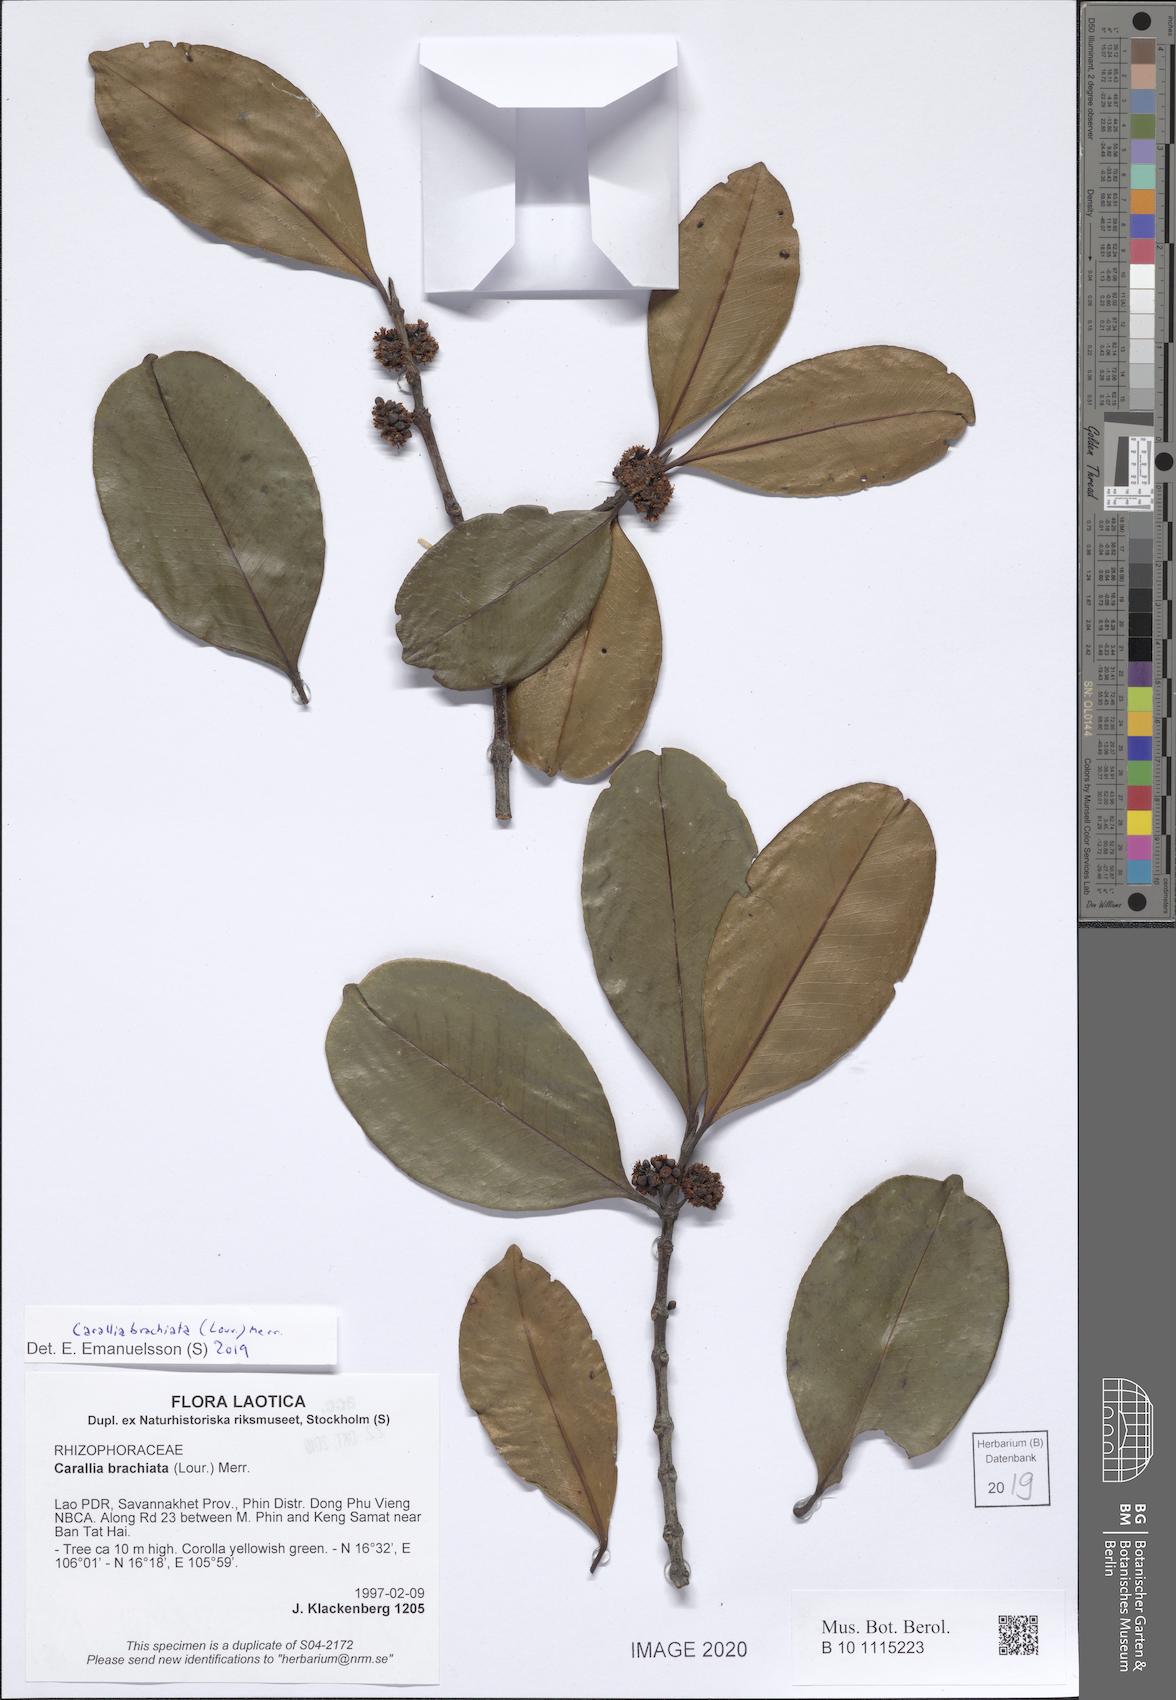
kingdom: Plantae
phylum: Tracheophyta
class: Magnoliopsida
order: Malpighiales
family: Rhizophoraceae
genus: Carallia
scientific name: Carallia brachiata
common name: Carallawood
